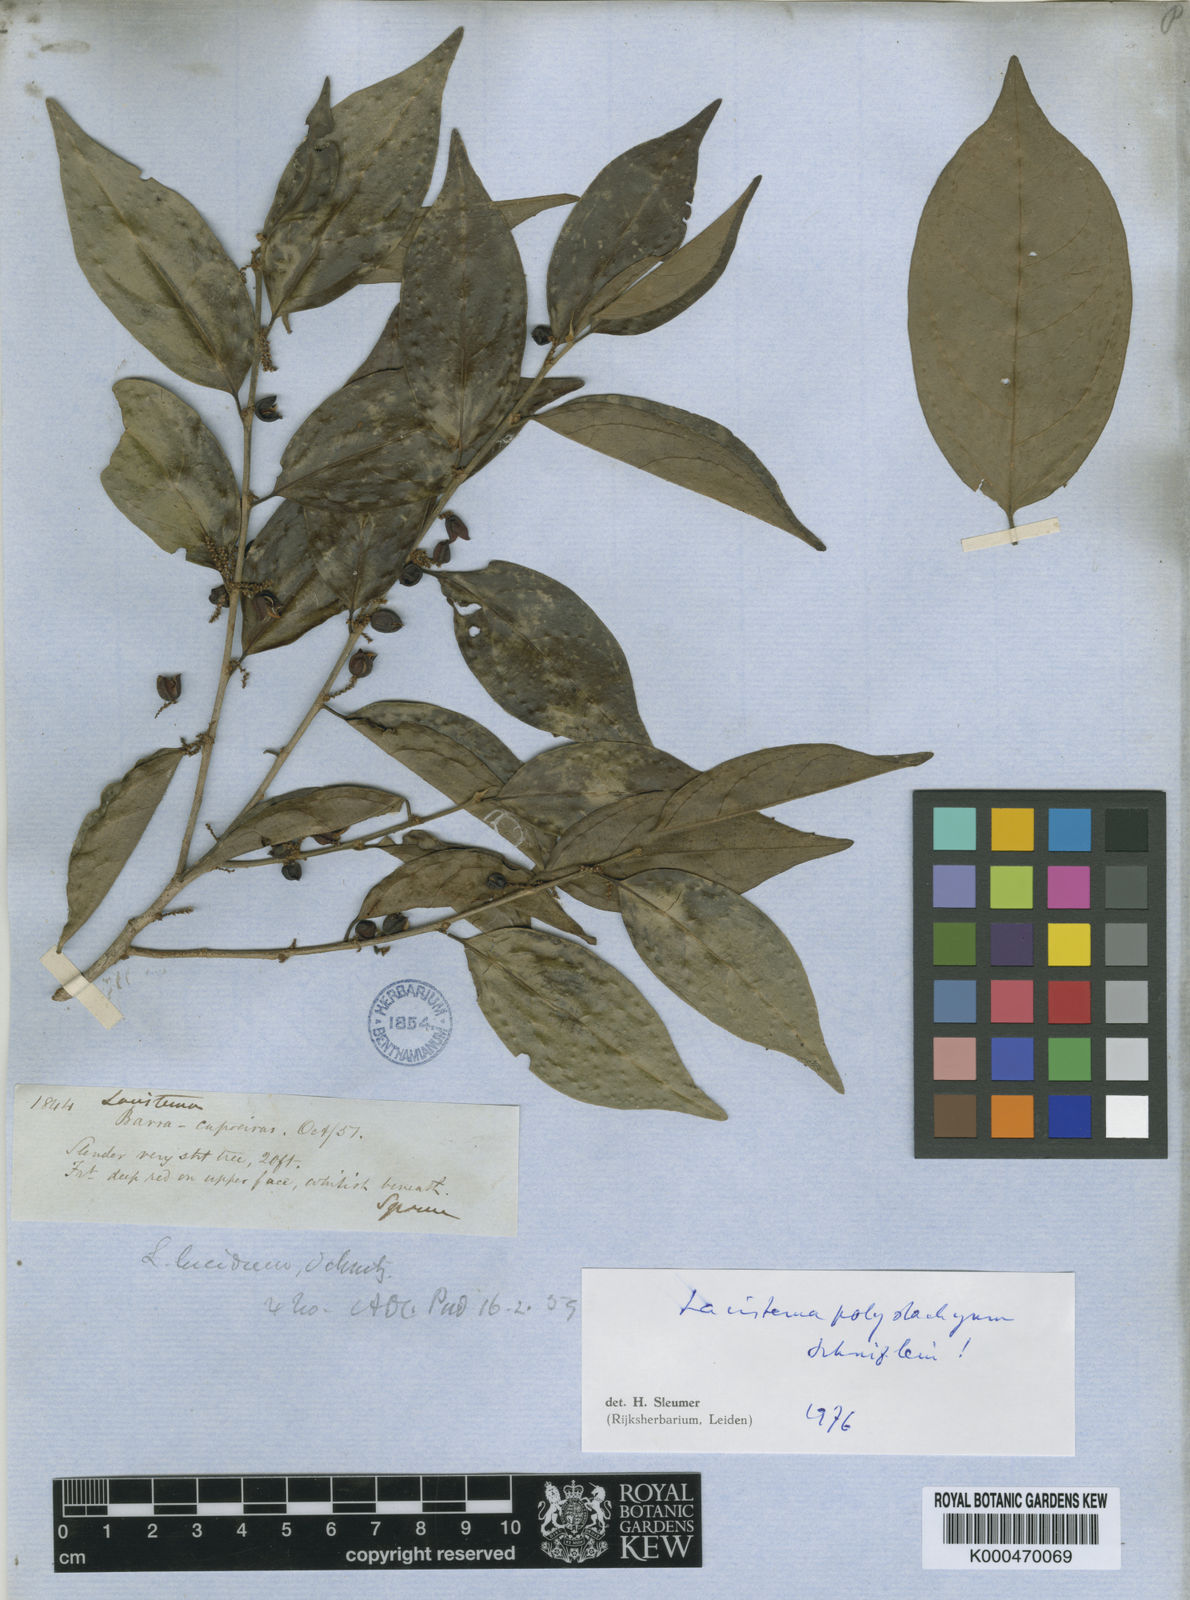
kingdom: Plantae
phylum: Tracheophyta
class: Magnoliopsida
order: Malpighiales
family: Lacistemataceae
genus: Lacistema
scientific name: Lacistema polystachyum
